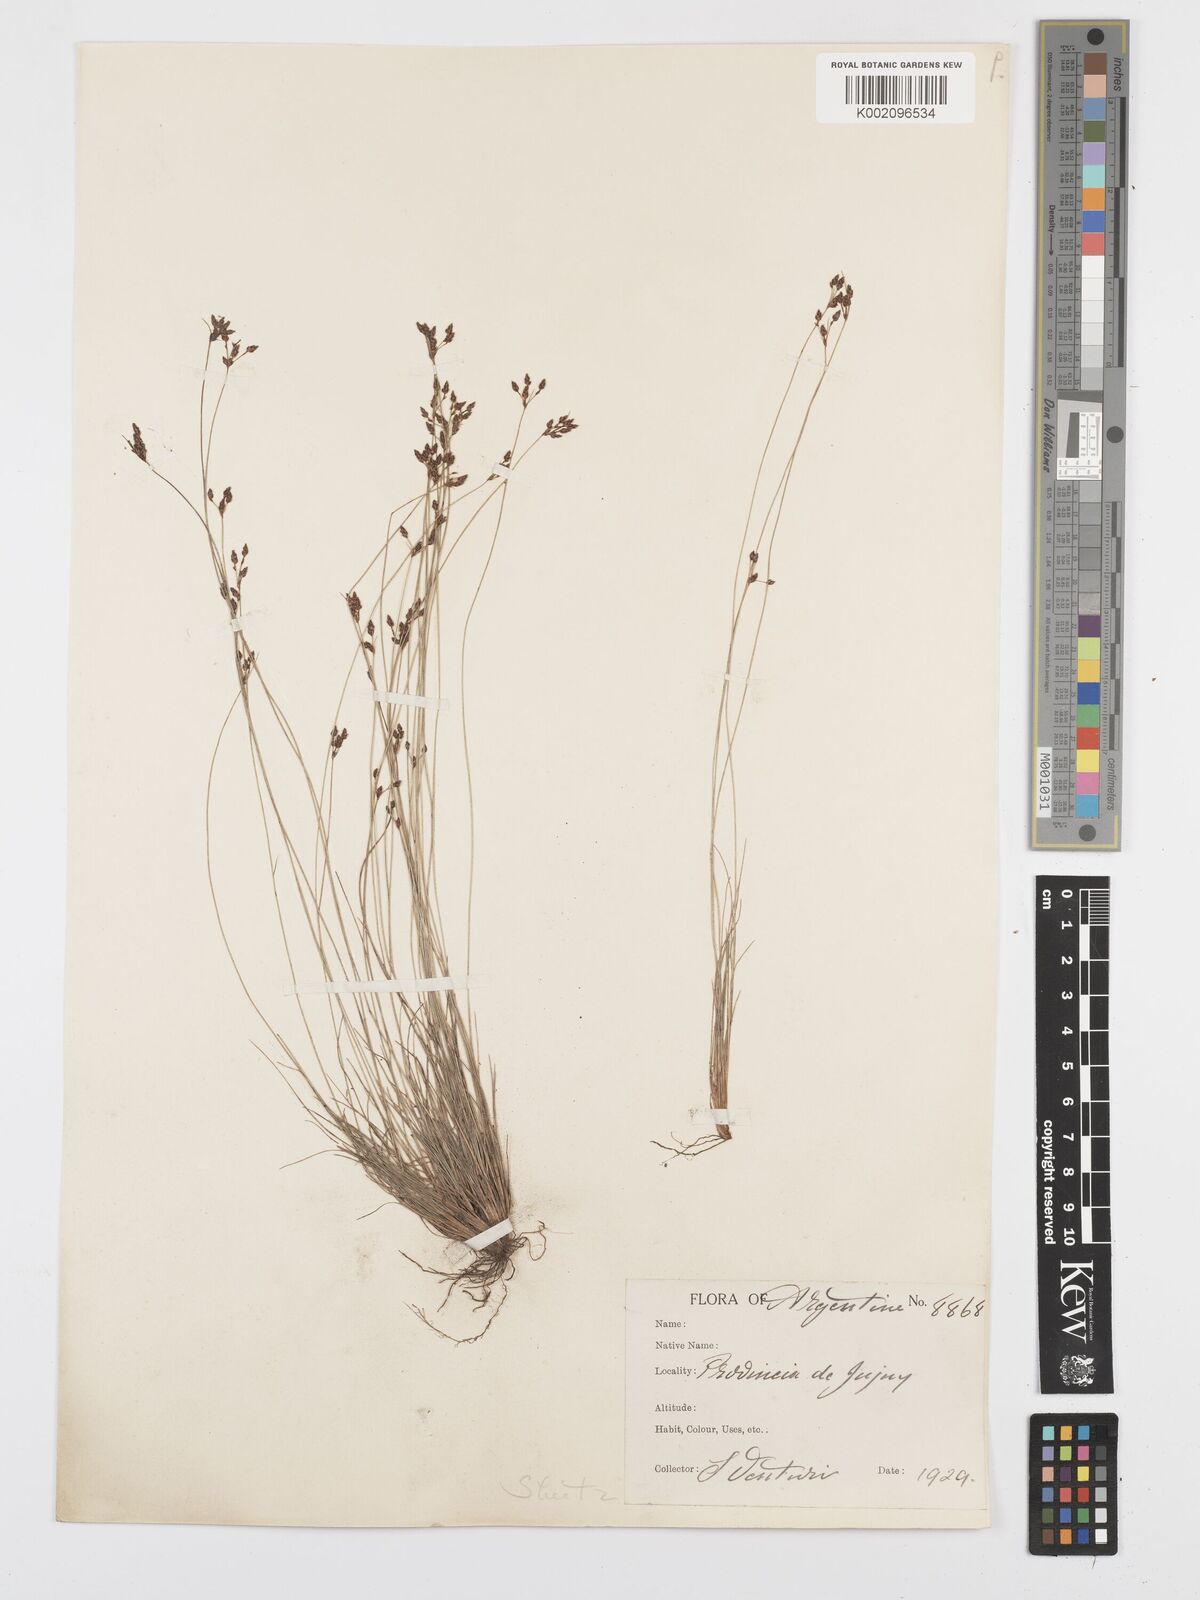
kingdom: Plantae
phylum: Tracheophyta
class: Liliopsida
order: Poales
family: Cyperaceae
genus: Bulbostylis
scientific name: Bulbostylis capillaris
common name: Densetuft hairsedge
